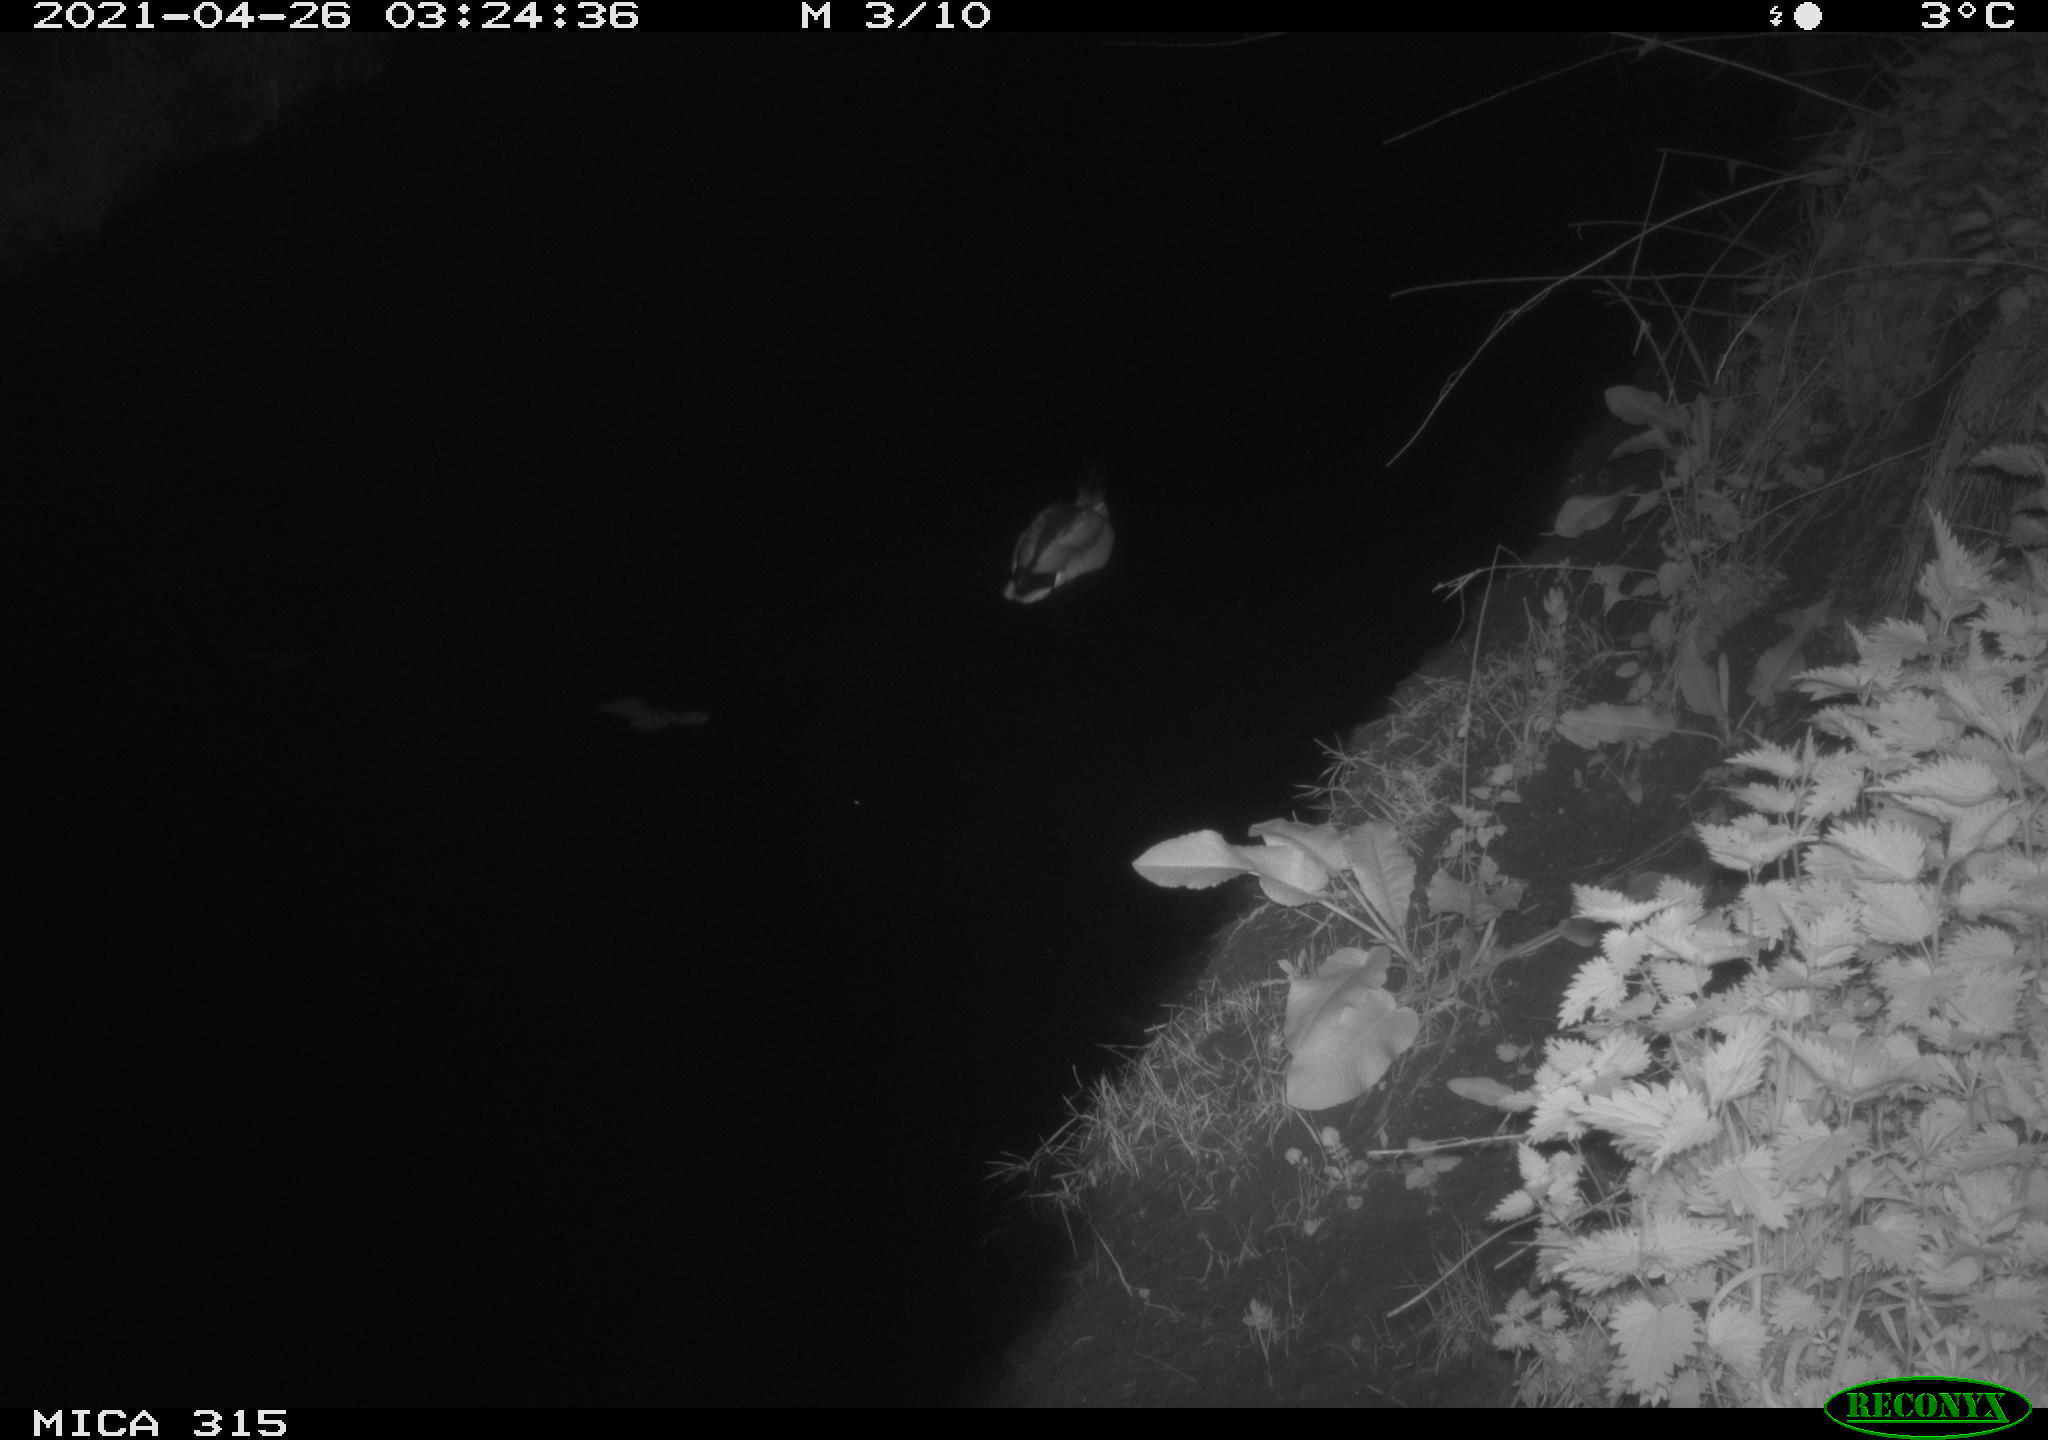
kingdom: Animalia
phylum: Chordata
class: Aves
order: Anseriformes
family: Anatidae
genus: Anas
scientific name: Anas
